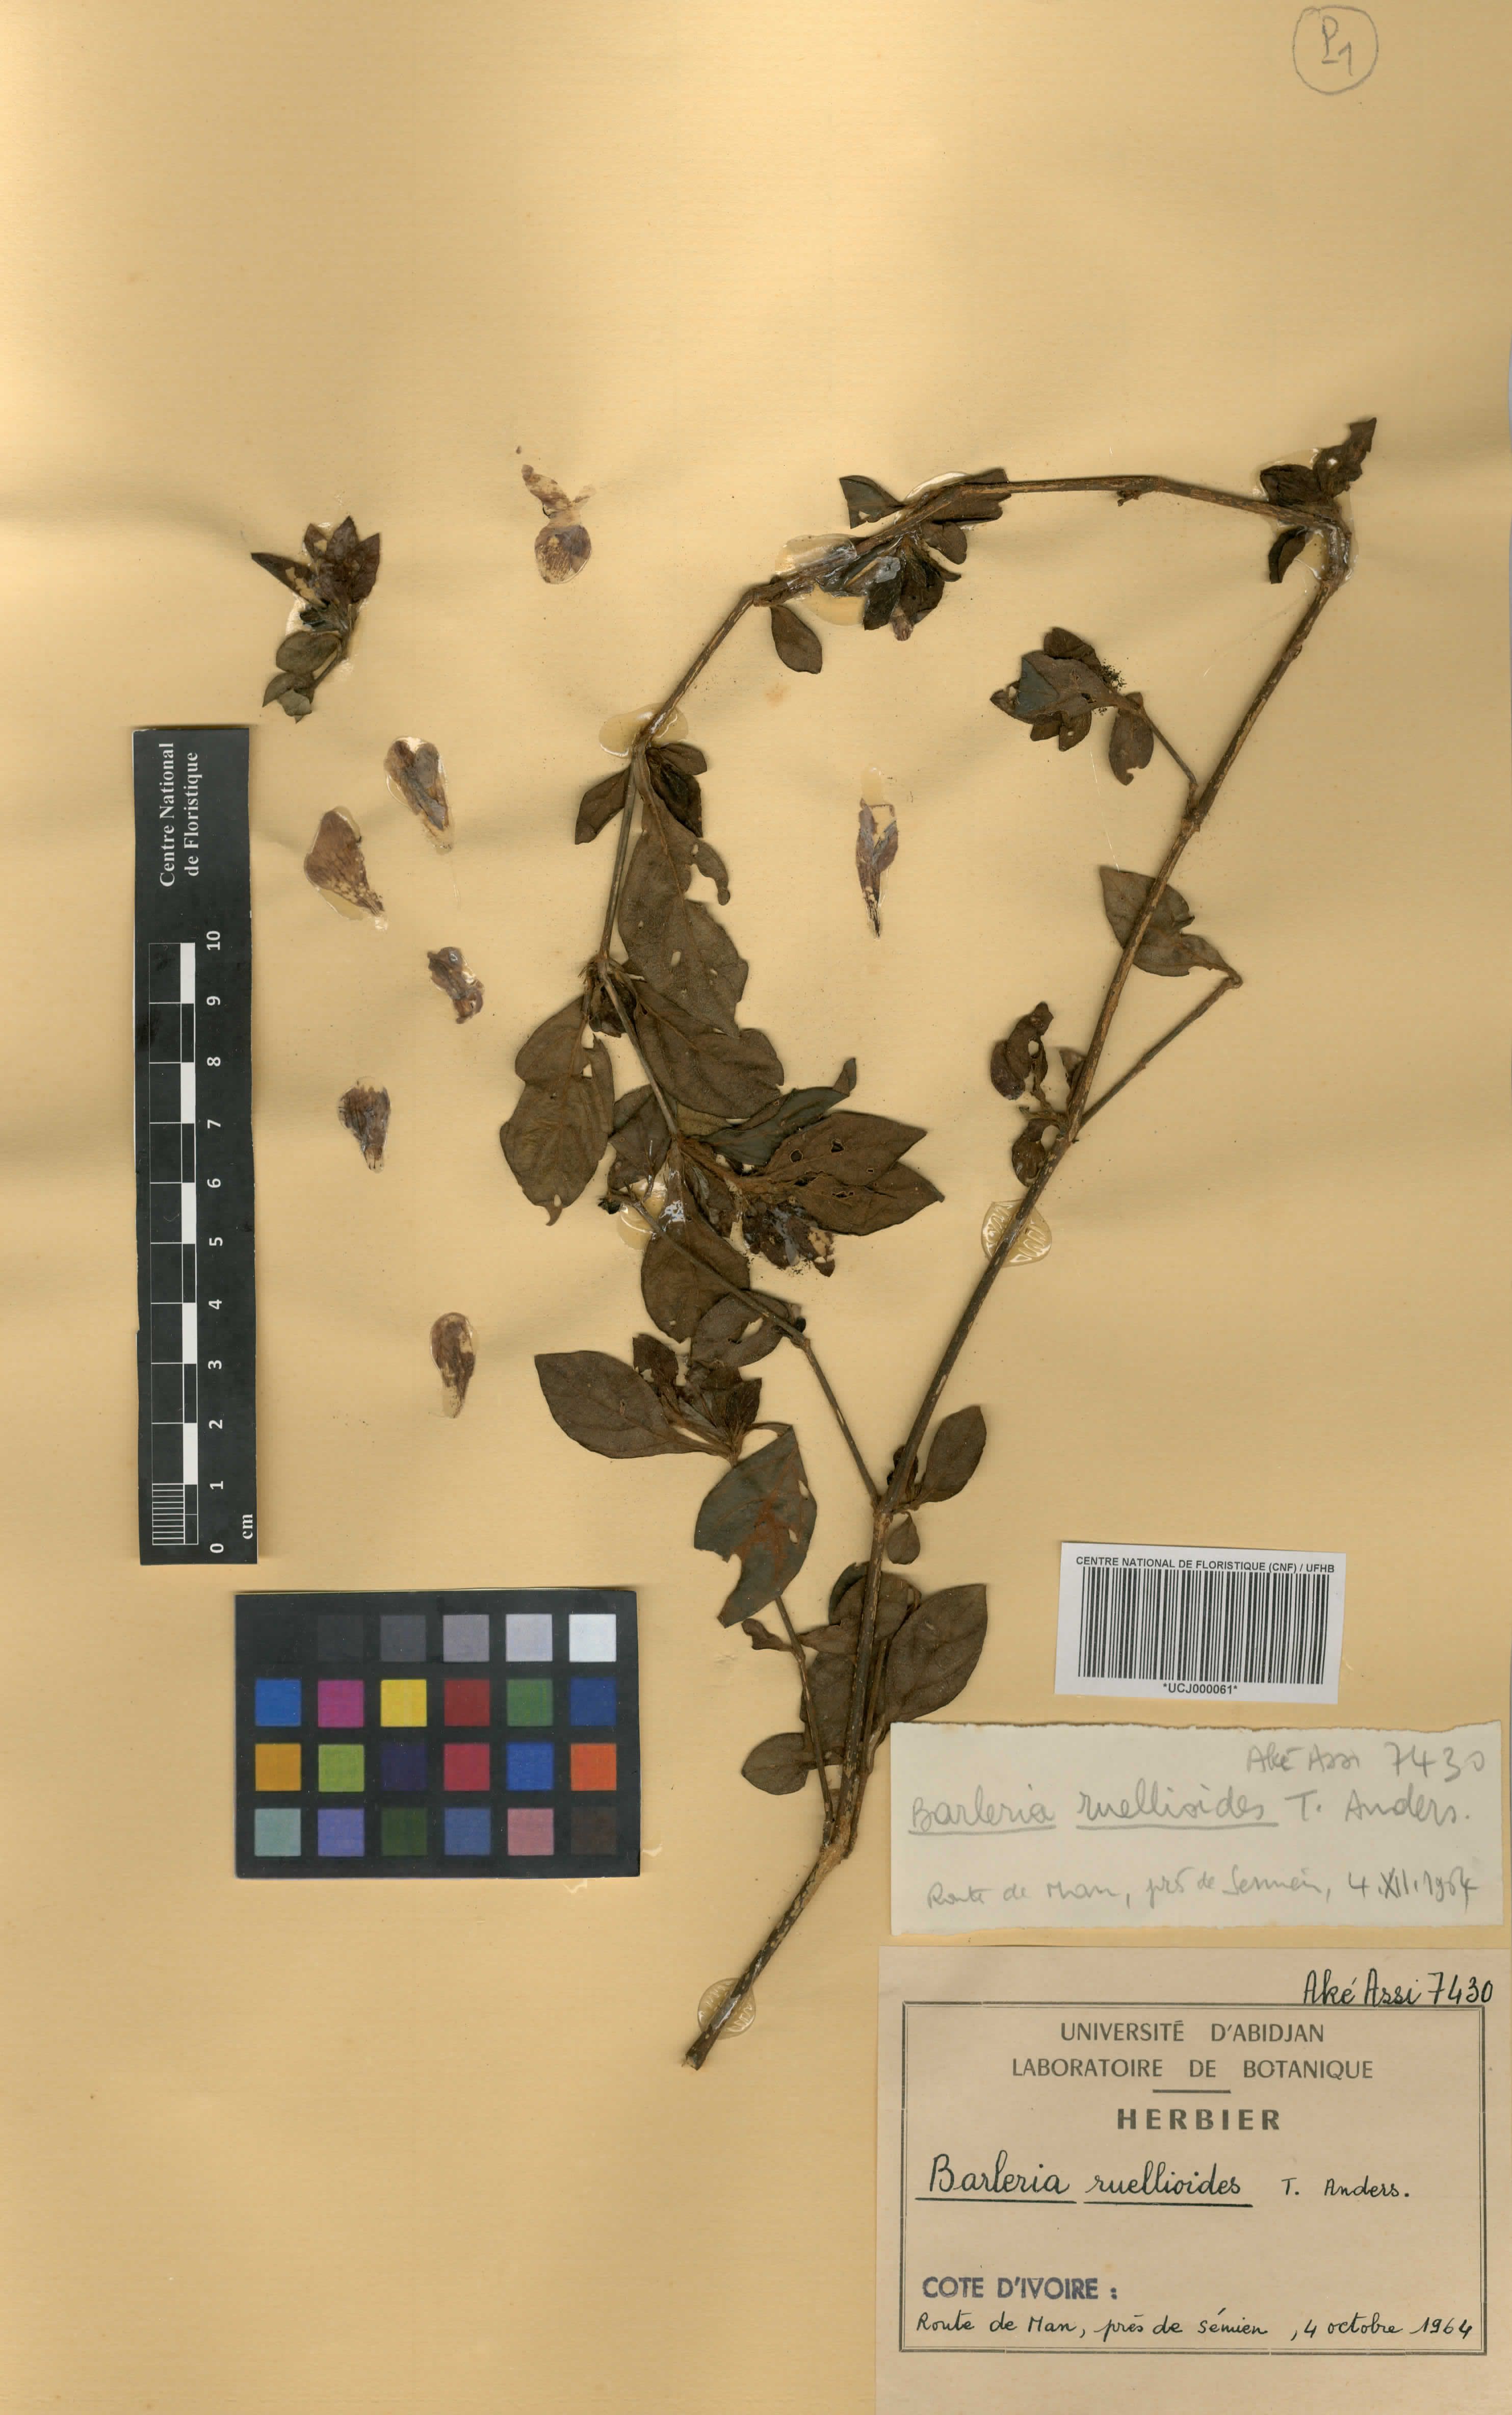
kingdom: Plantae
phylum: Tracheophyta
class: Magnoliopsida
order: Lamiales
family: Acanthaceae
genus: Barleria
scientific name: Barleria ruellioides
